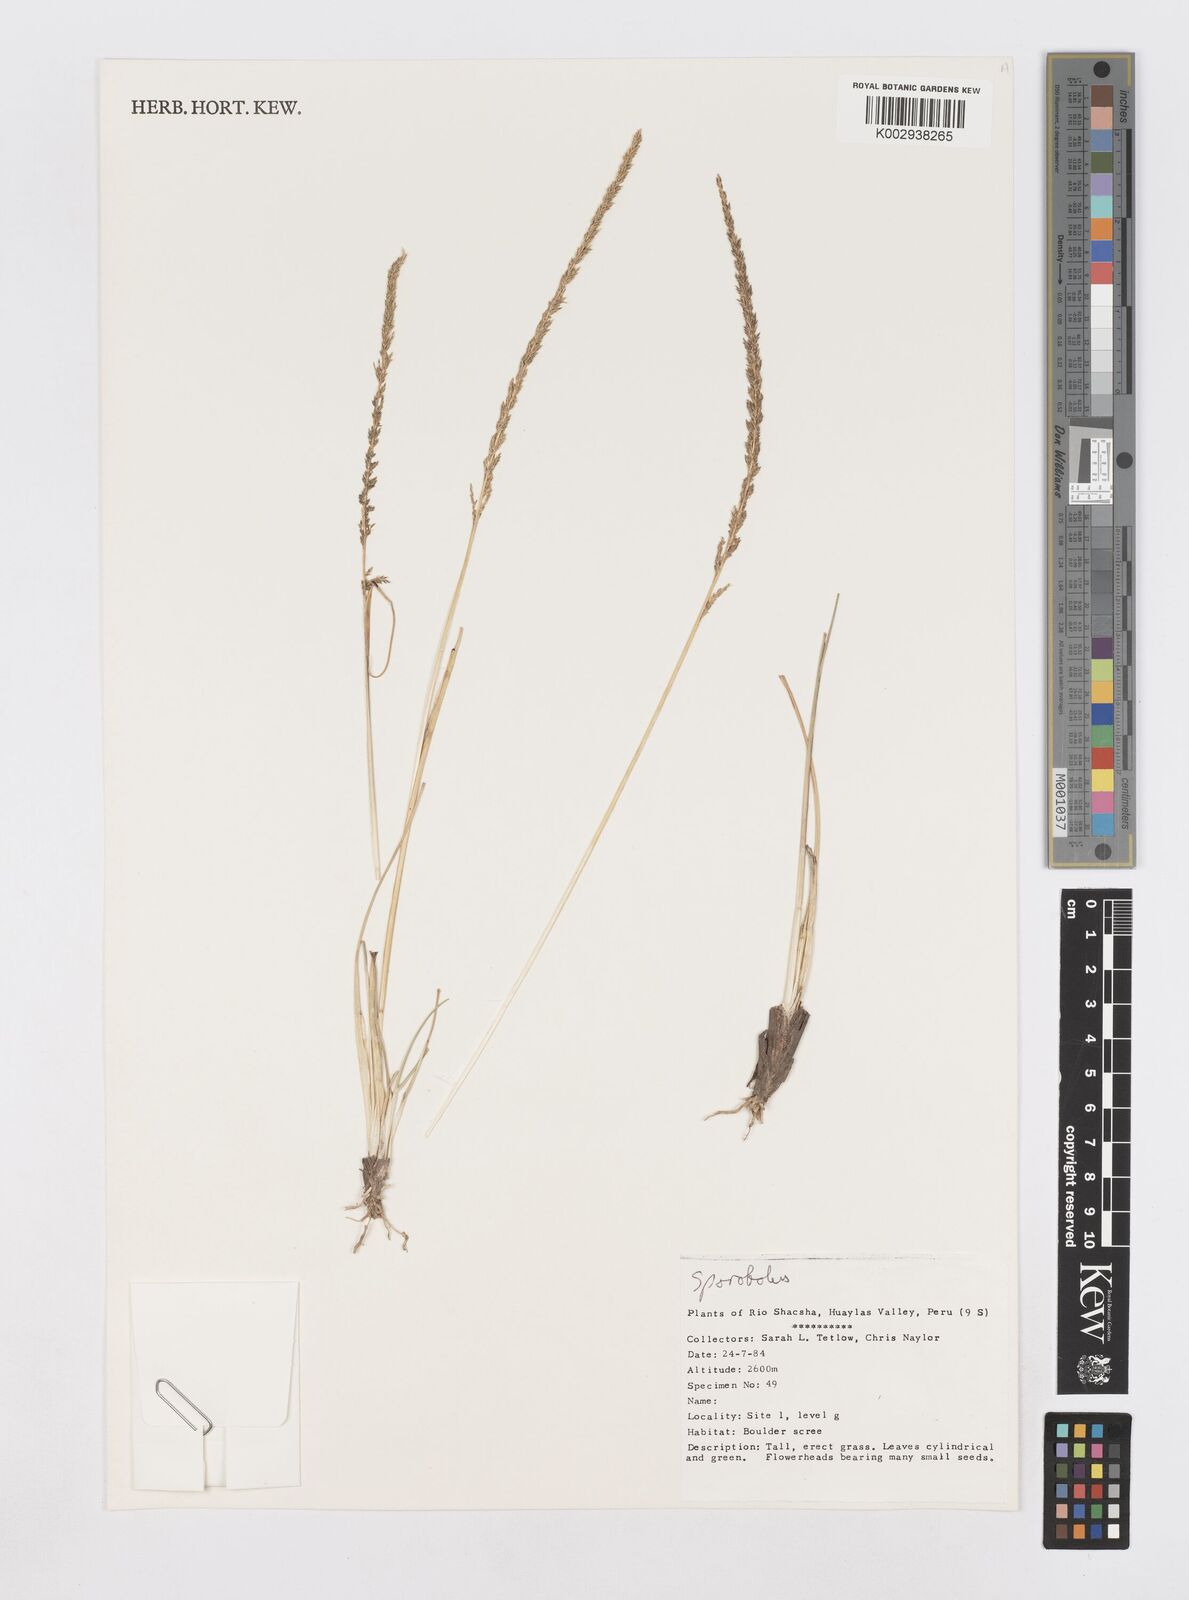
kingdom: Plantae
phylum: Tracheophyta
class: Liliopsida
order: Poales
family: Poaceae
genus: Sporobolus
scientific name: Sporobolus
